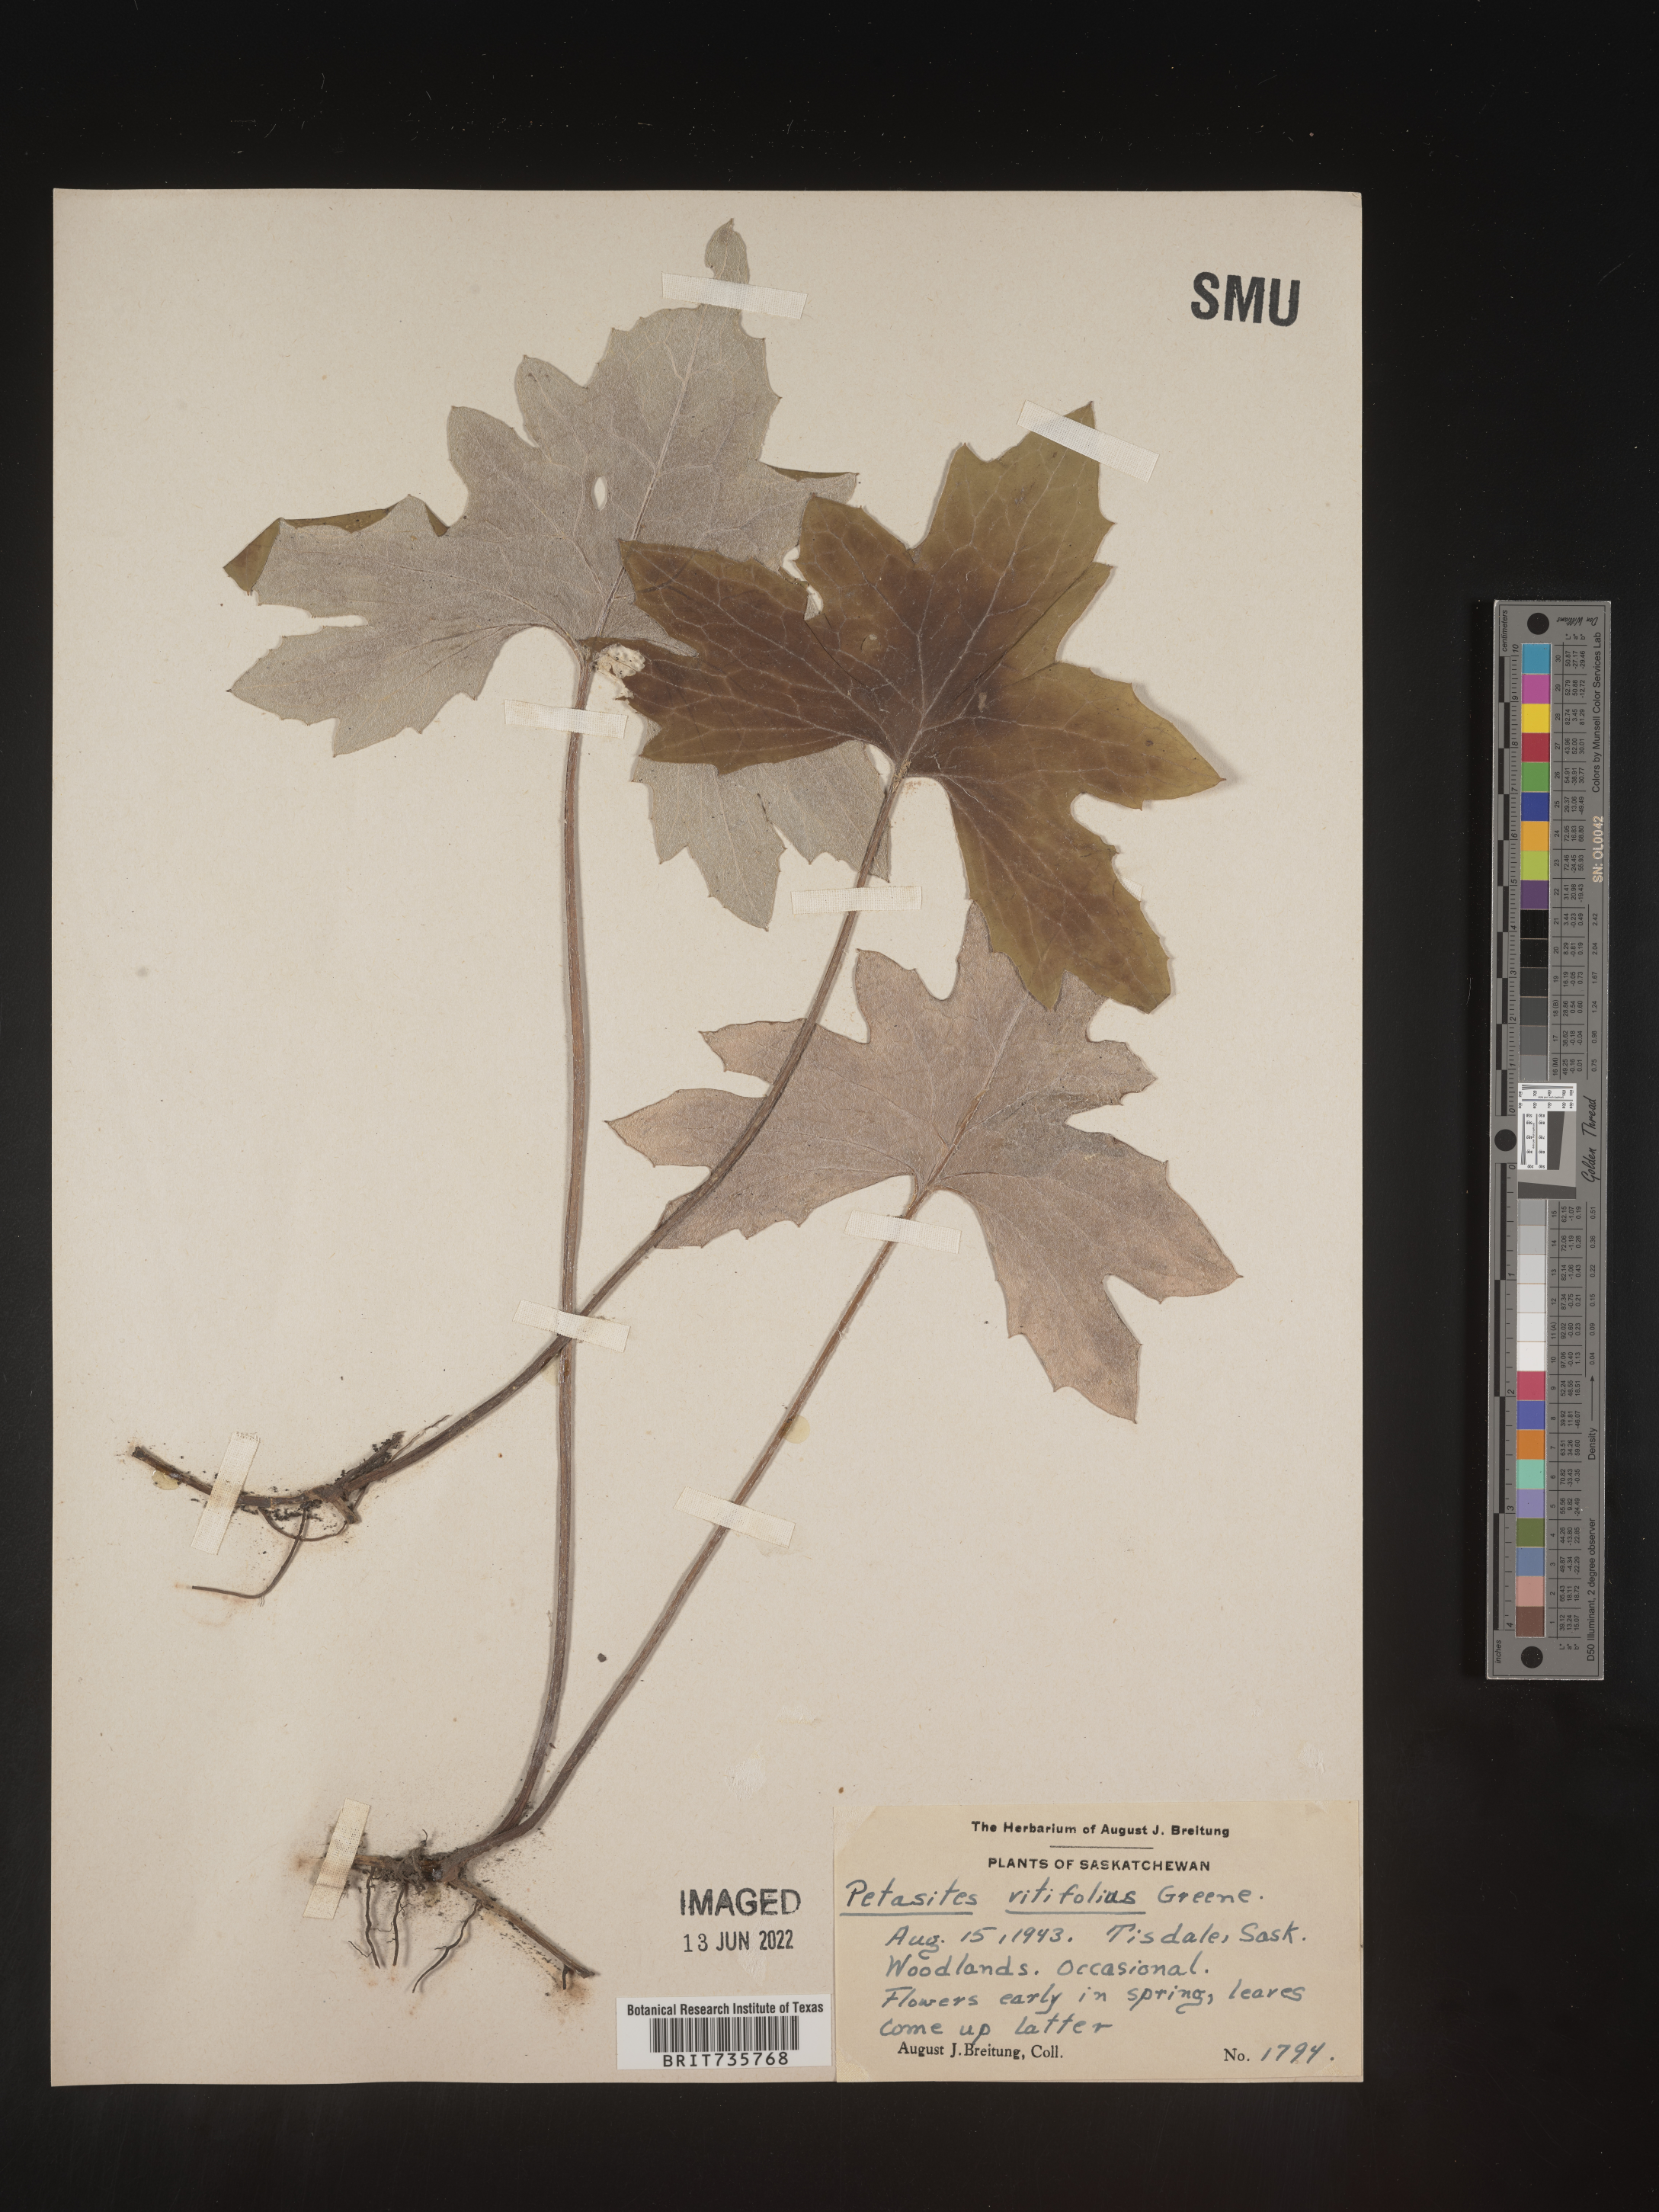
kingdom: Plantae
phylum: Tracheophyta
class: Magnoliopsida
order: Asterales
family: Asteraceae
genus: Petasites
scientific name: Petasites
